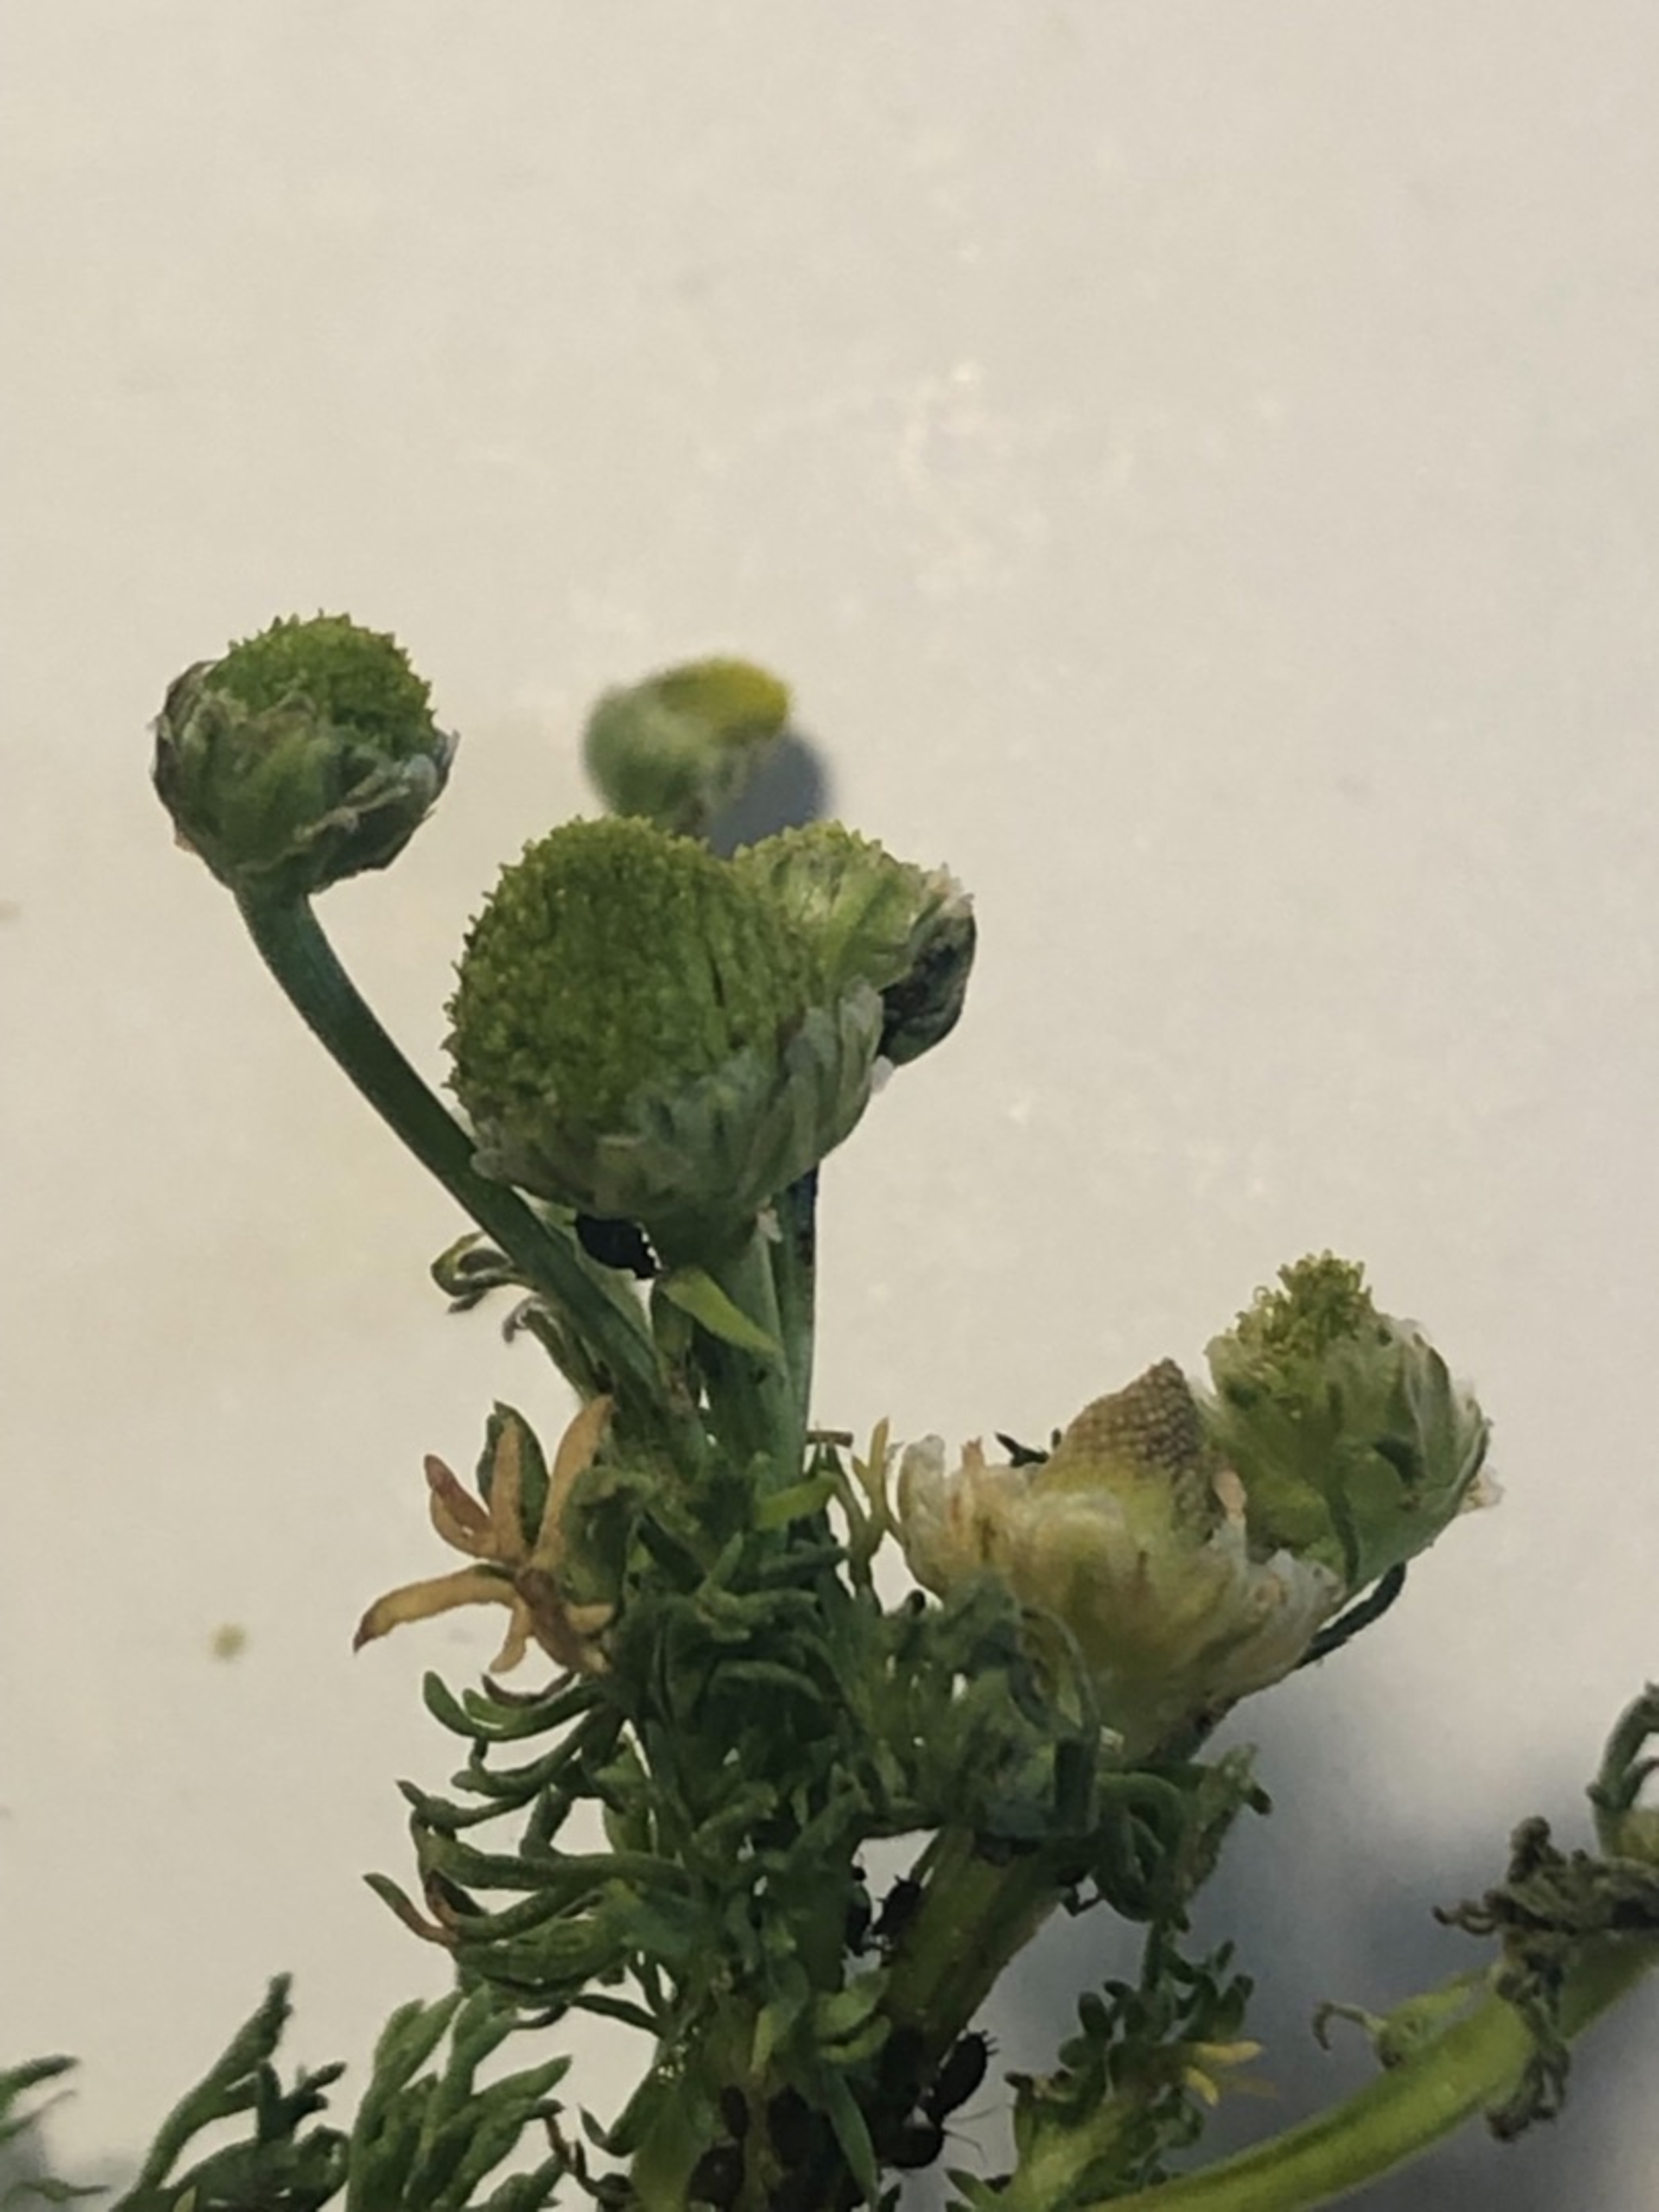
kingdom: Plantae
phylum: Tracheophyta
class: Magnoliopsida
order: Asterales
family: Asteraceae
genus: Matricaria
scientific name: Matricaria discoidea
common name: Skive-kamille
